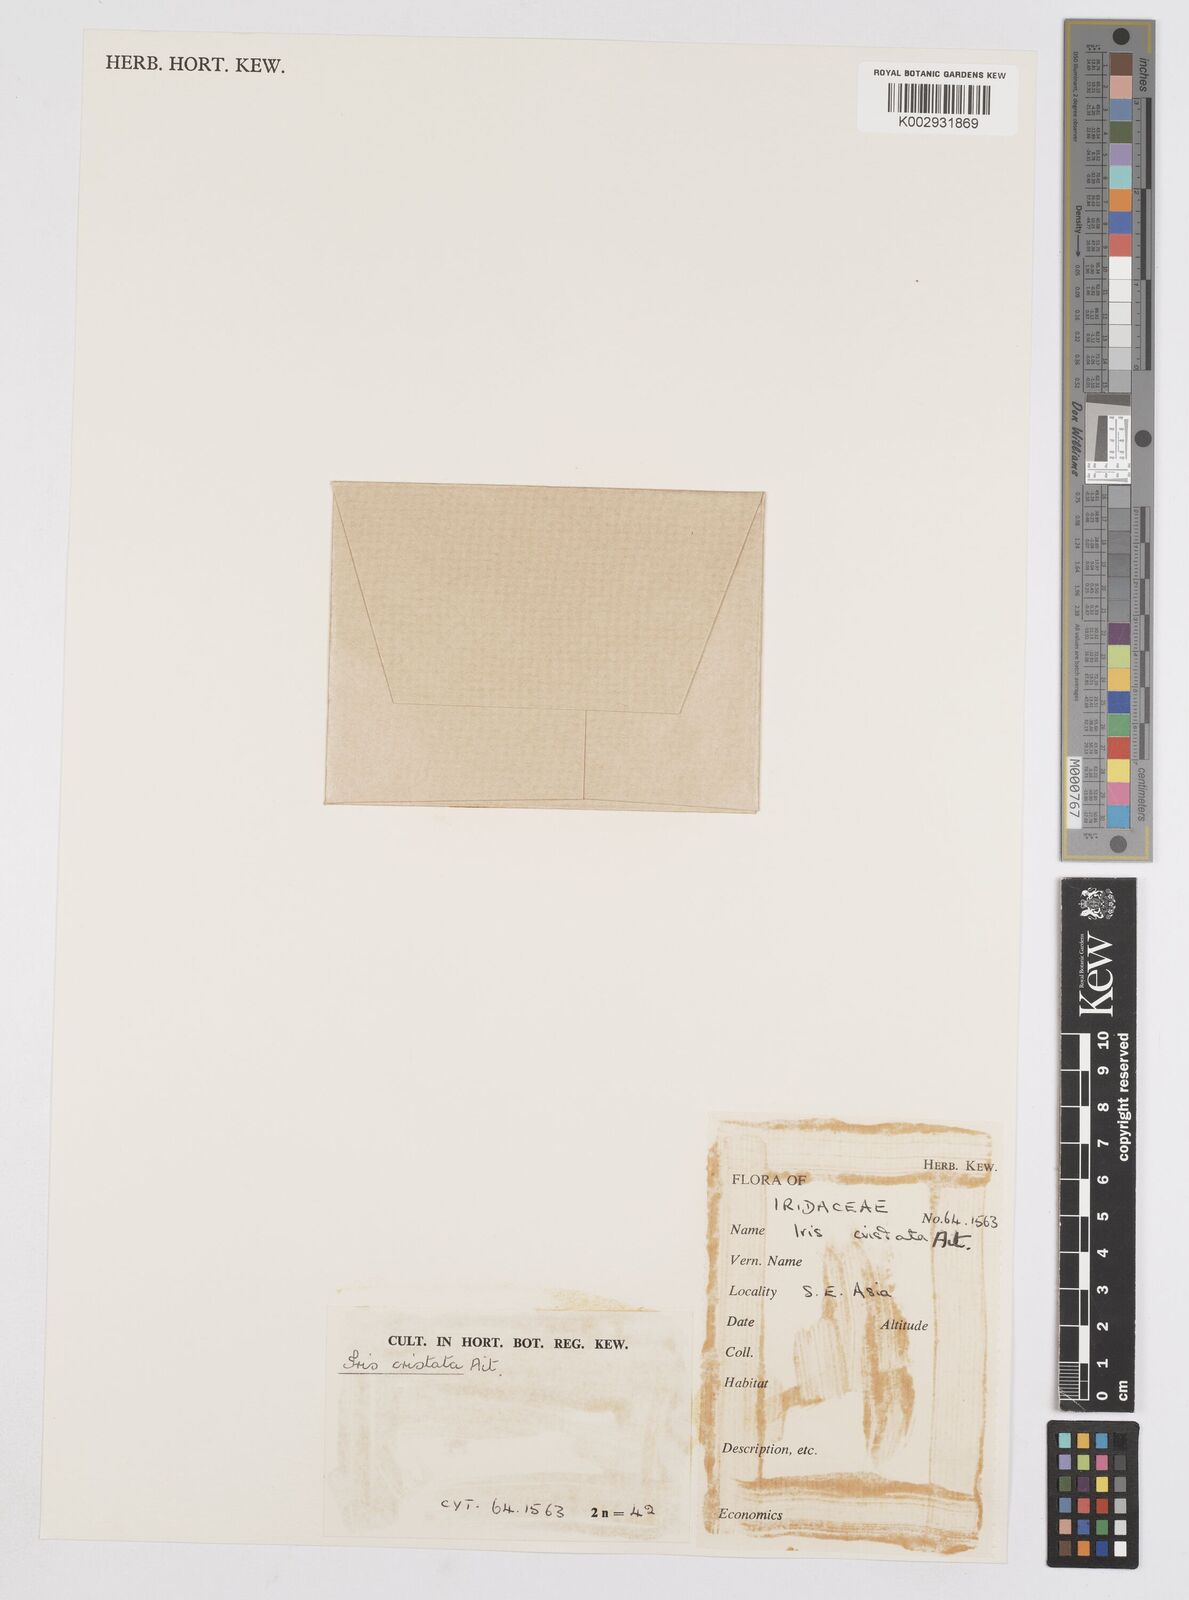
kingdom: Plantae
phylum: Tracheophyta
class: Liliopsida
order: Asparagales
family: Iridaceae
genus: Iris
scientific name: Iris cristata
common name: Crested iris
